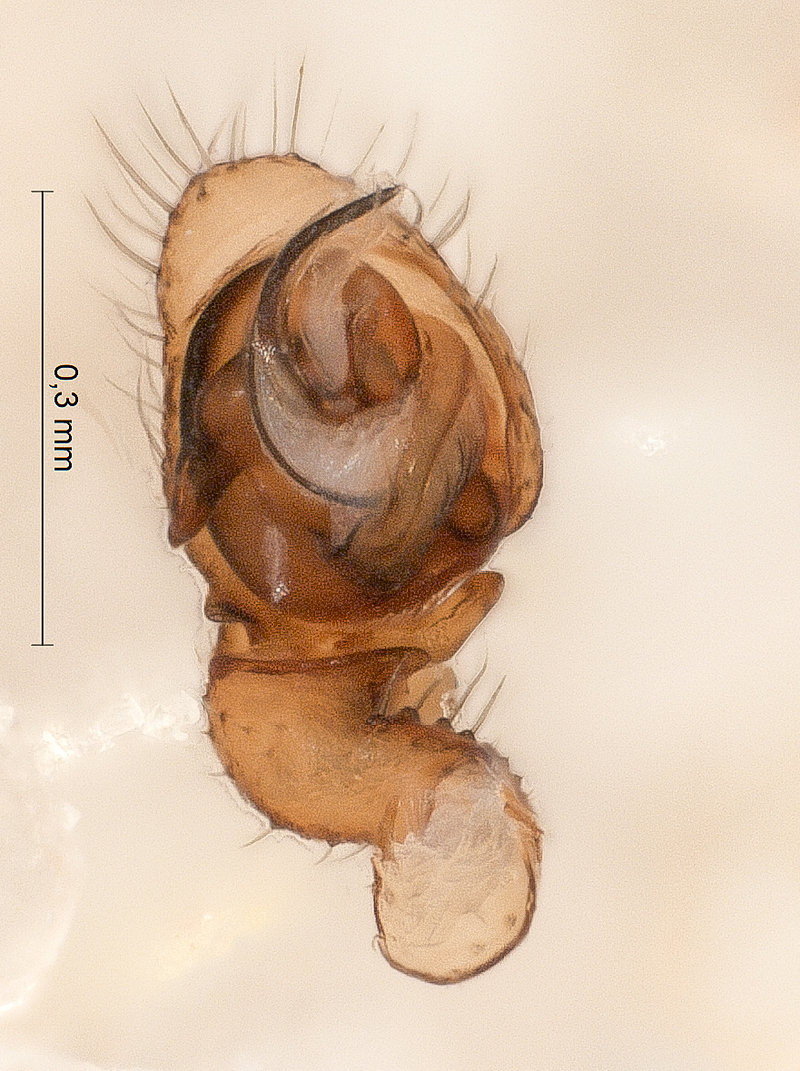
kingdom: Animalia
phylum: Arthropoda
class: Arachnida
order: Araneae
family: Linyphiidae
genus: Gonatium
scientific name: Gonatium paradoxum
